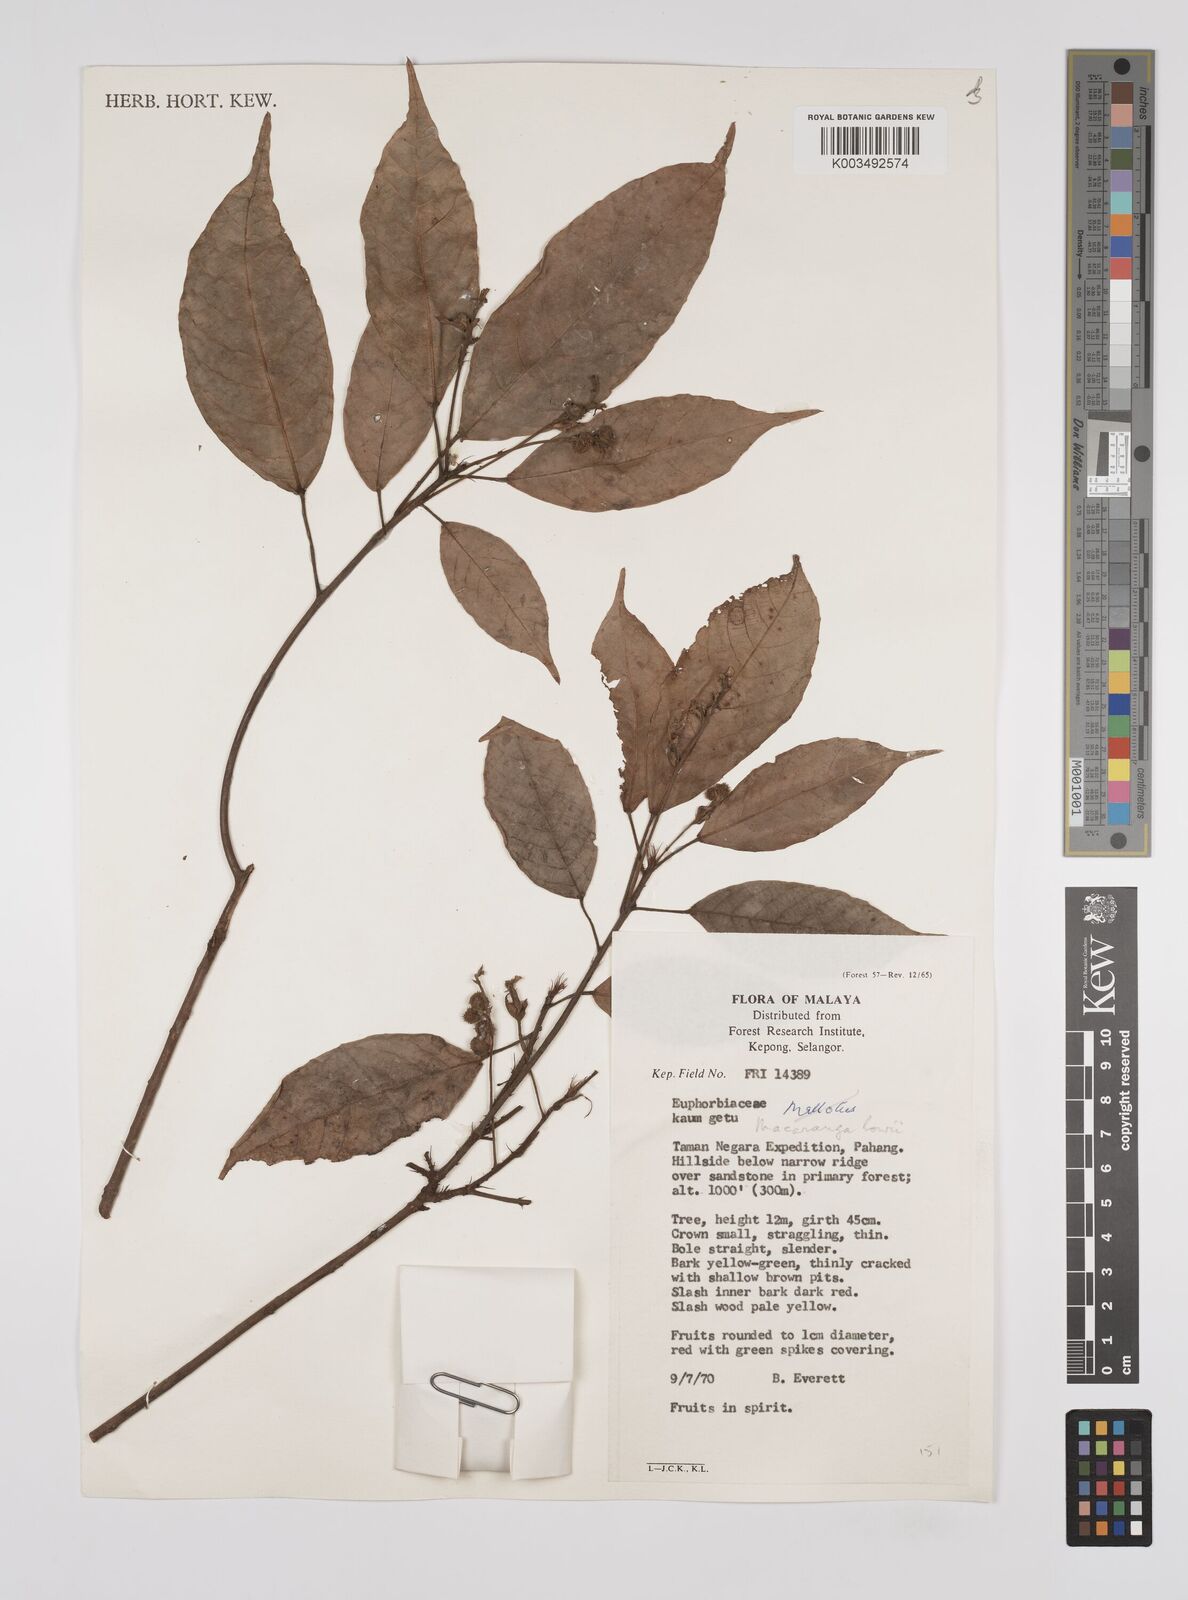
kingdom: Plantae
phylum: Tracheophyta
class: Magnoliopsida
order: Malpighiales
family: Euphorbiaceae
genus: Macaranga
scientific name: Macaranga lowii
